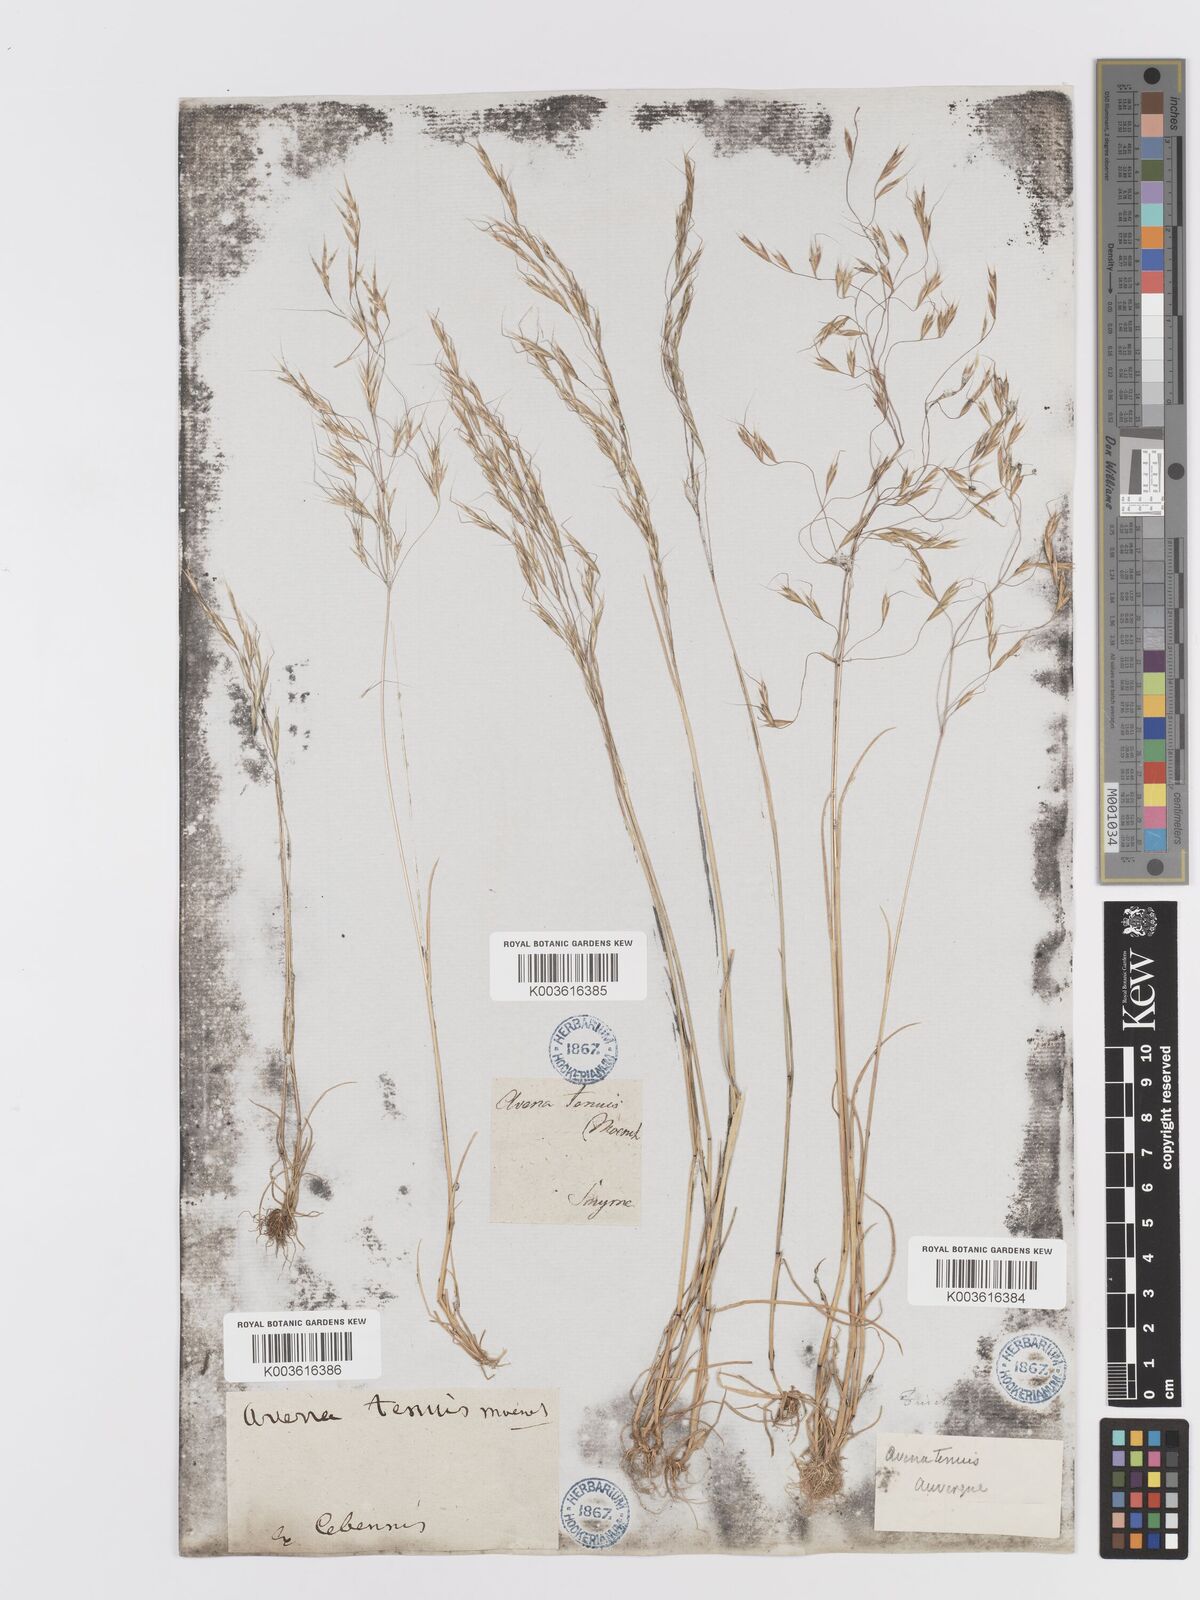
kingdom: Plantae
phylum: Tracheophyta
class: Liliopsida
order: Poales
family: Poaceae
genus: Ventenata
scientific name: Ventenata dubia
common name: North africa grass
